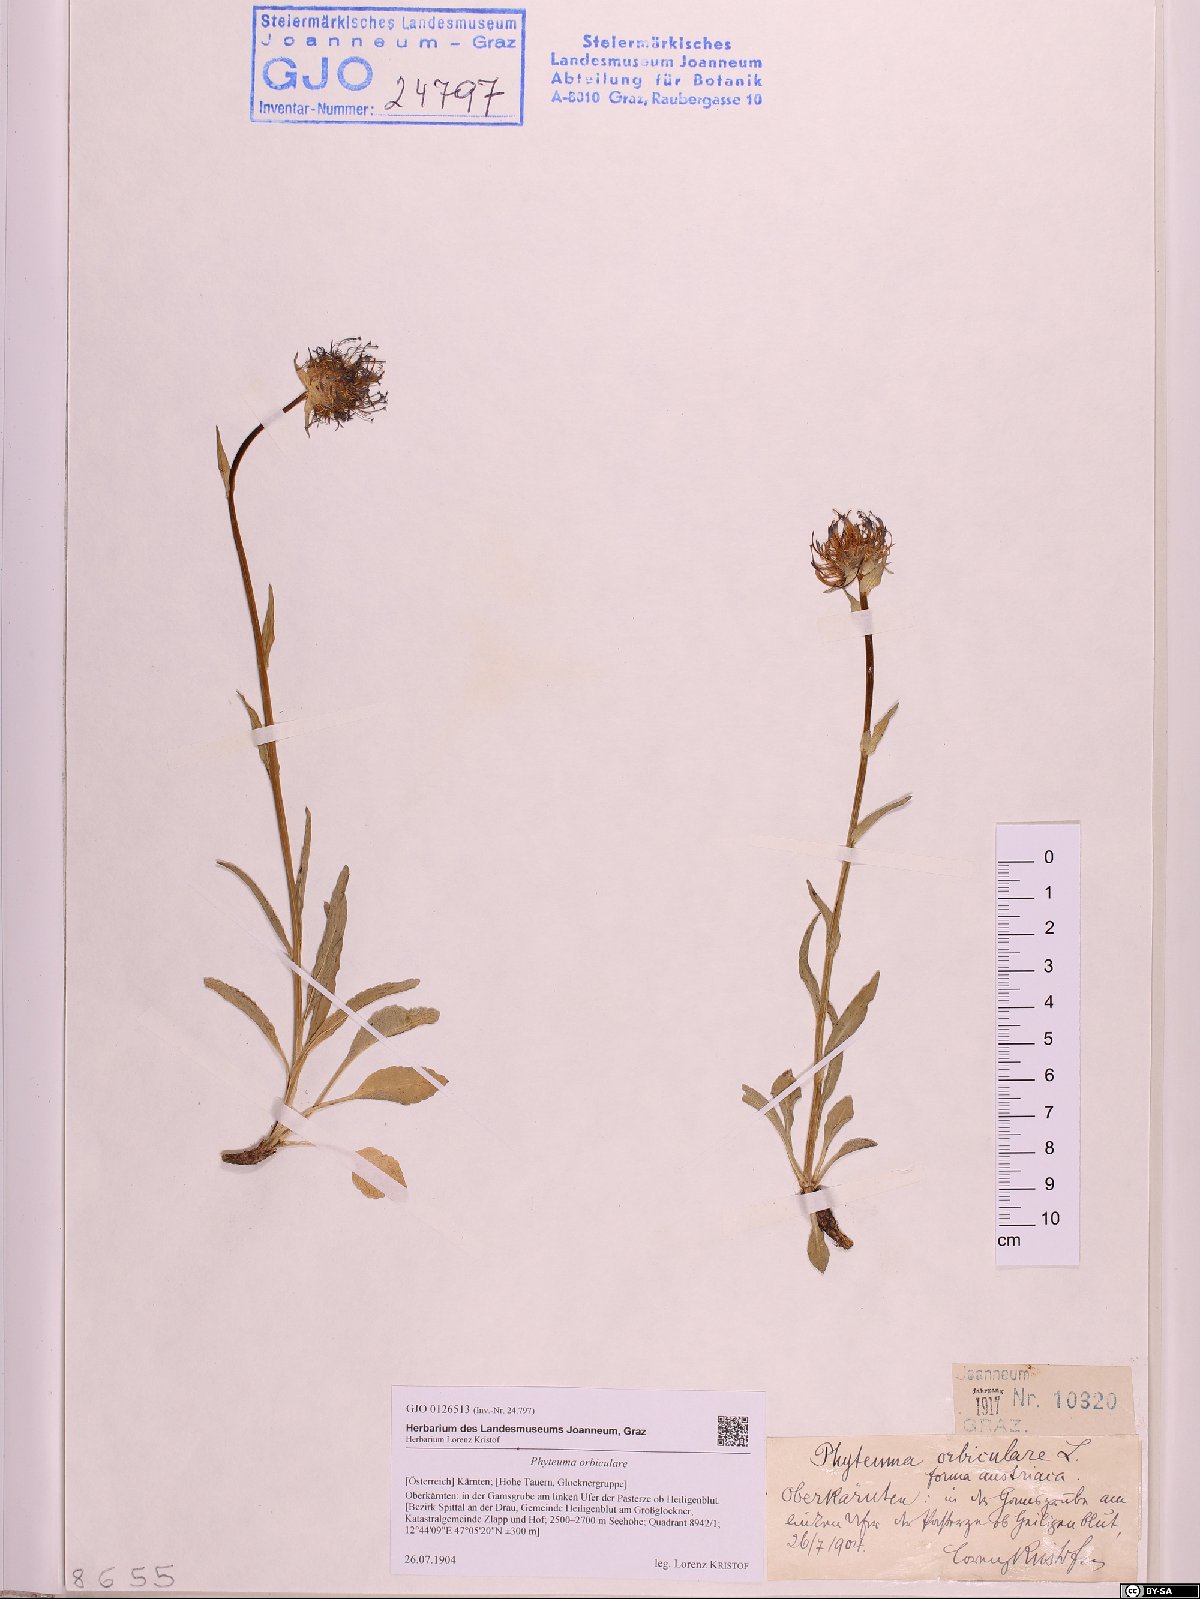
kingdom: Plantae
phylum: Tracheophyta
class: Magnoliopsida
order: Asterales
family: Campanulaceae
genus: Phyteuma
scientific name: Phyteuma orbiculare
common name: Round-headed rampion
